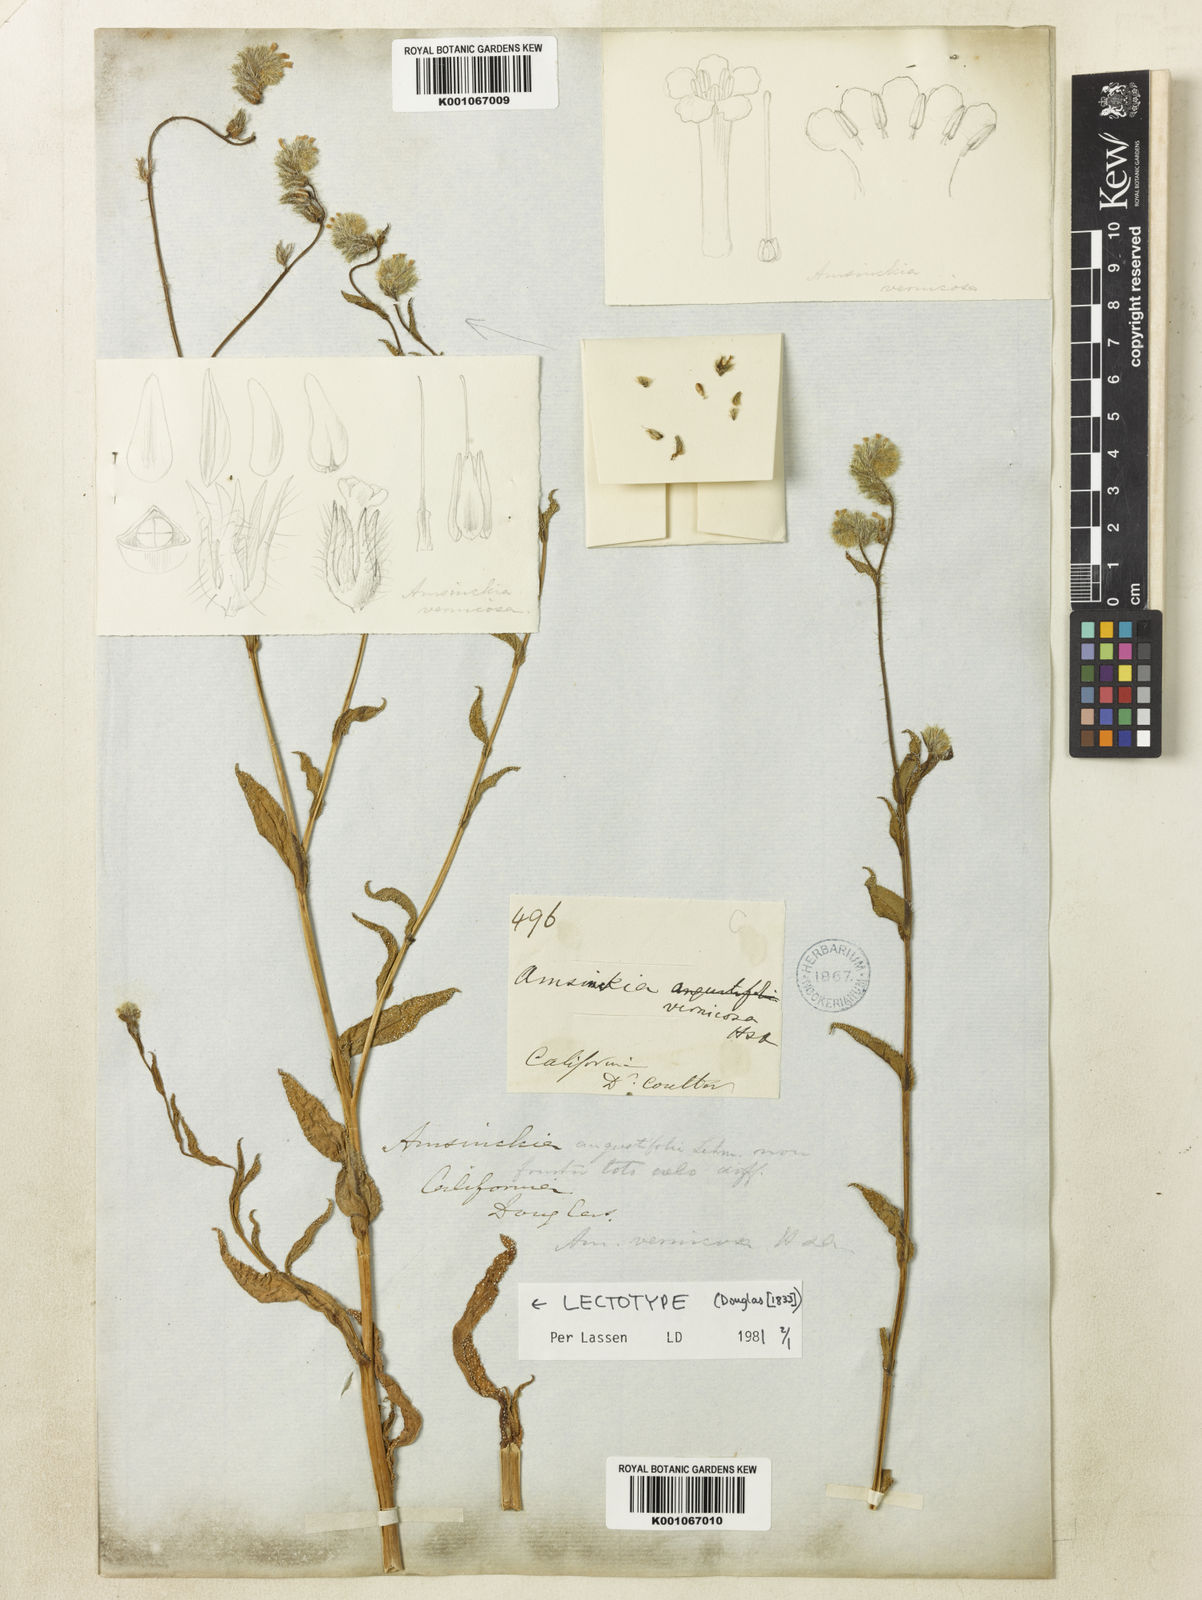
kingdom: Plantae
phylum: Tracheophyta
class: Magnoliopsida
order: Boraginales
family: Boraginaceae
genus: Amsinckia
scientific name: Amsinckia vernicosa
